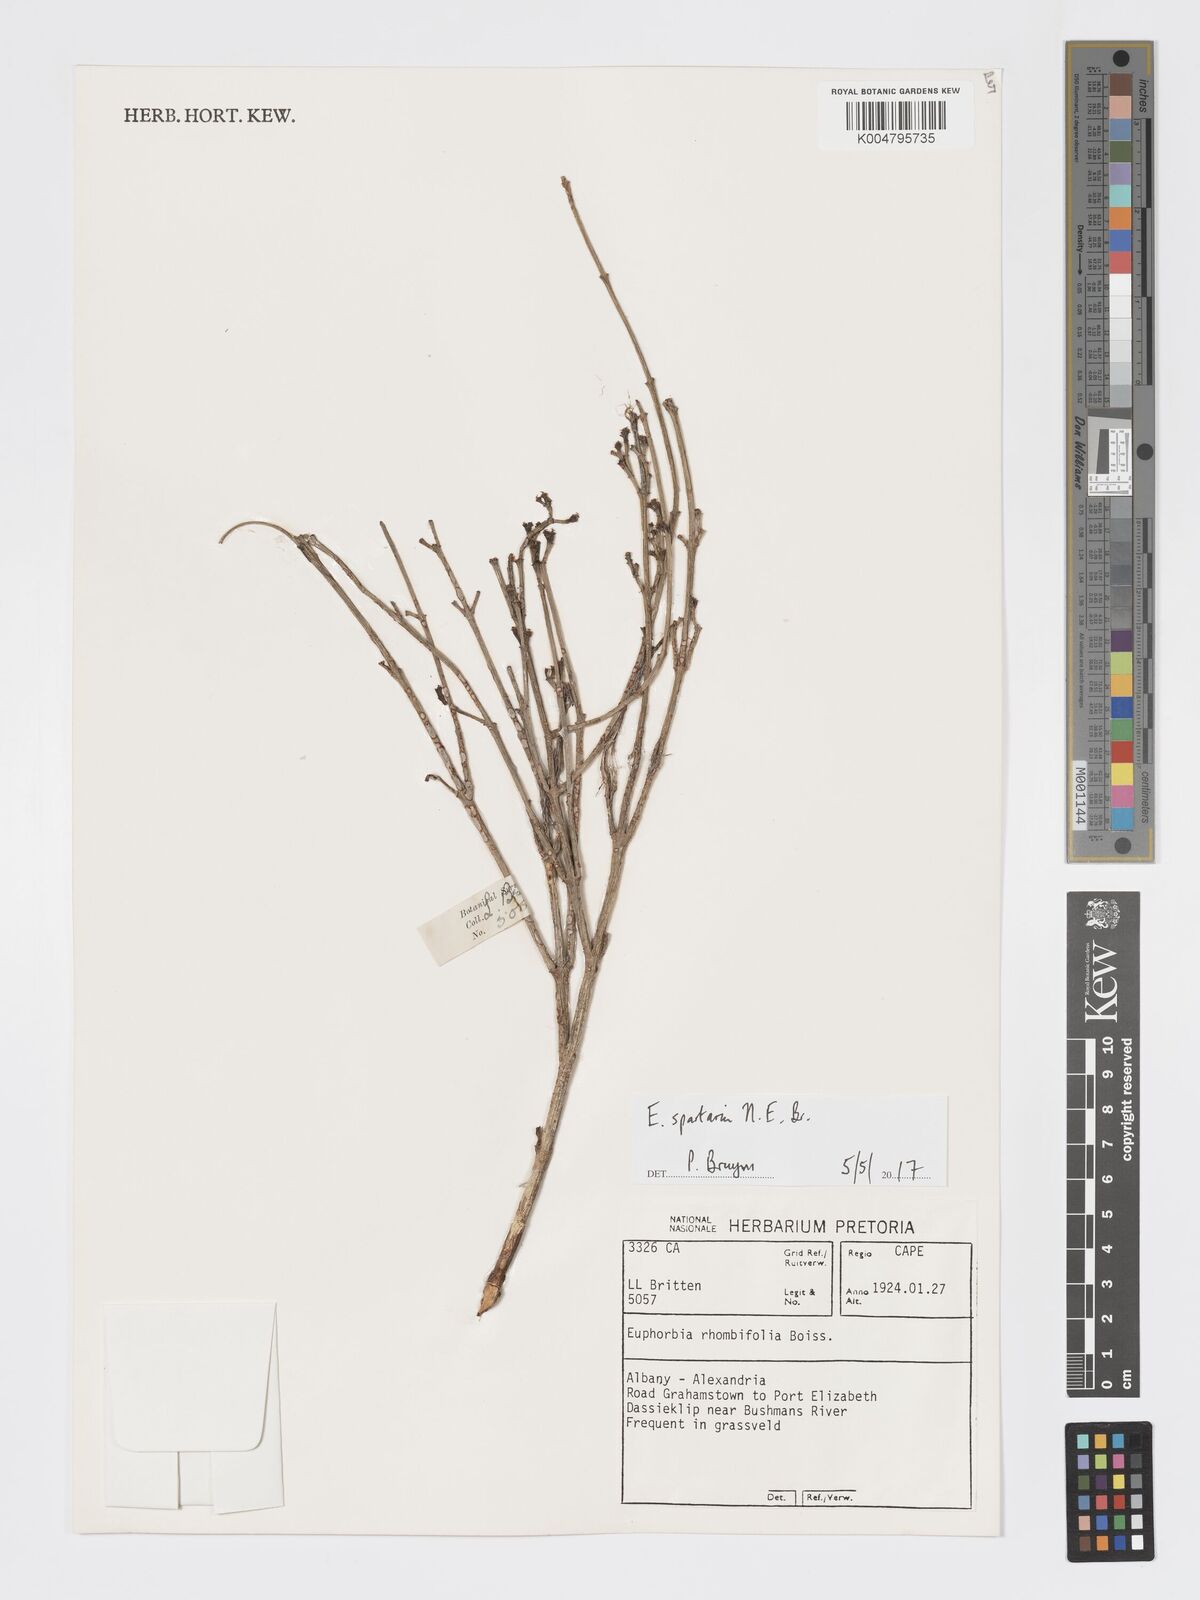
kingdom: Plantae
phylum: Tracheophyta
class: Magnoliopsida
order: Malpighiales
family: Euphorbiaceae
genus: Euphorbia
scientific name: Euphorbia spartaria
